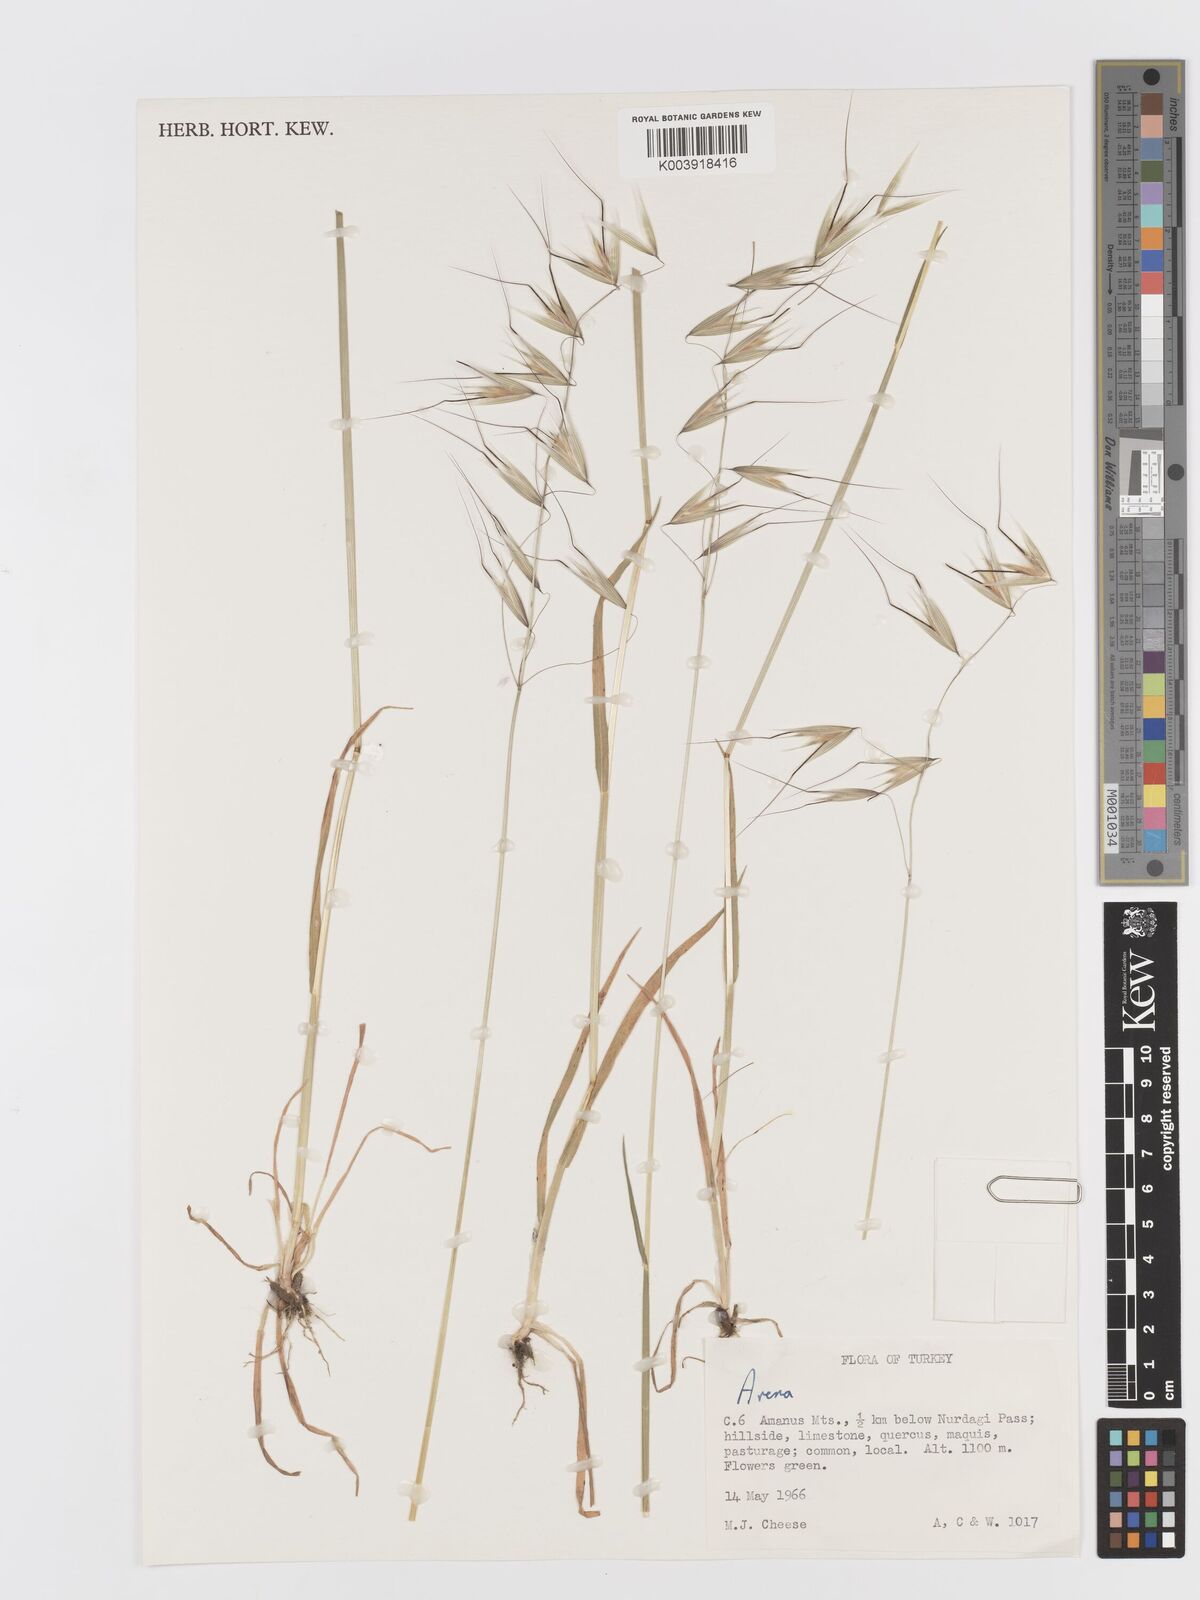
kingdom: Plantae
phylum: Tracheophyta
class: Liliopsida
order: Poales
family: Poaceae
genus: Avena
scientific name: Avena
